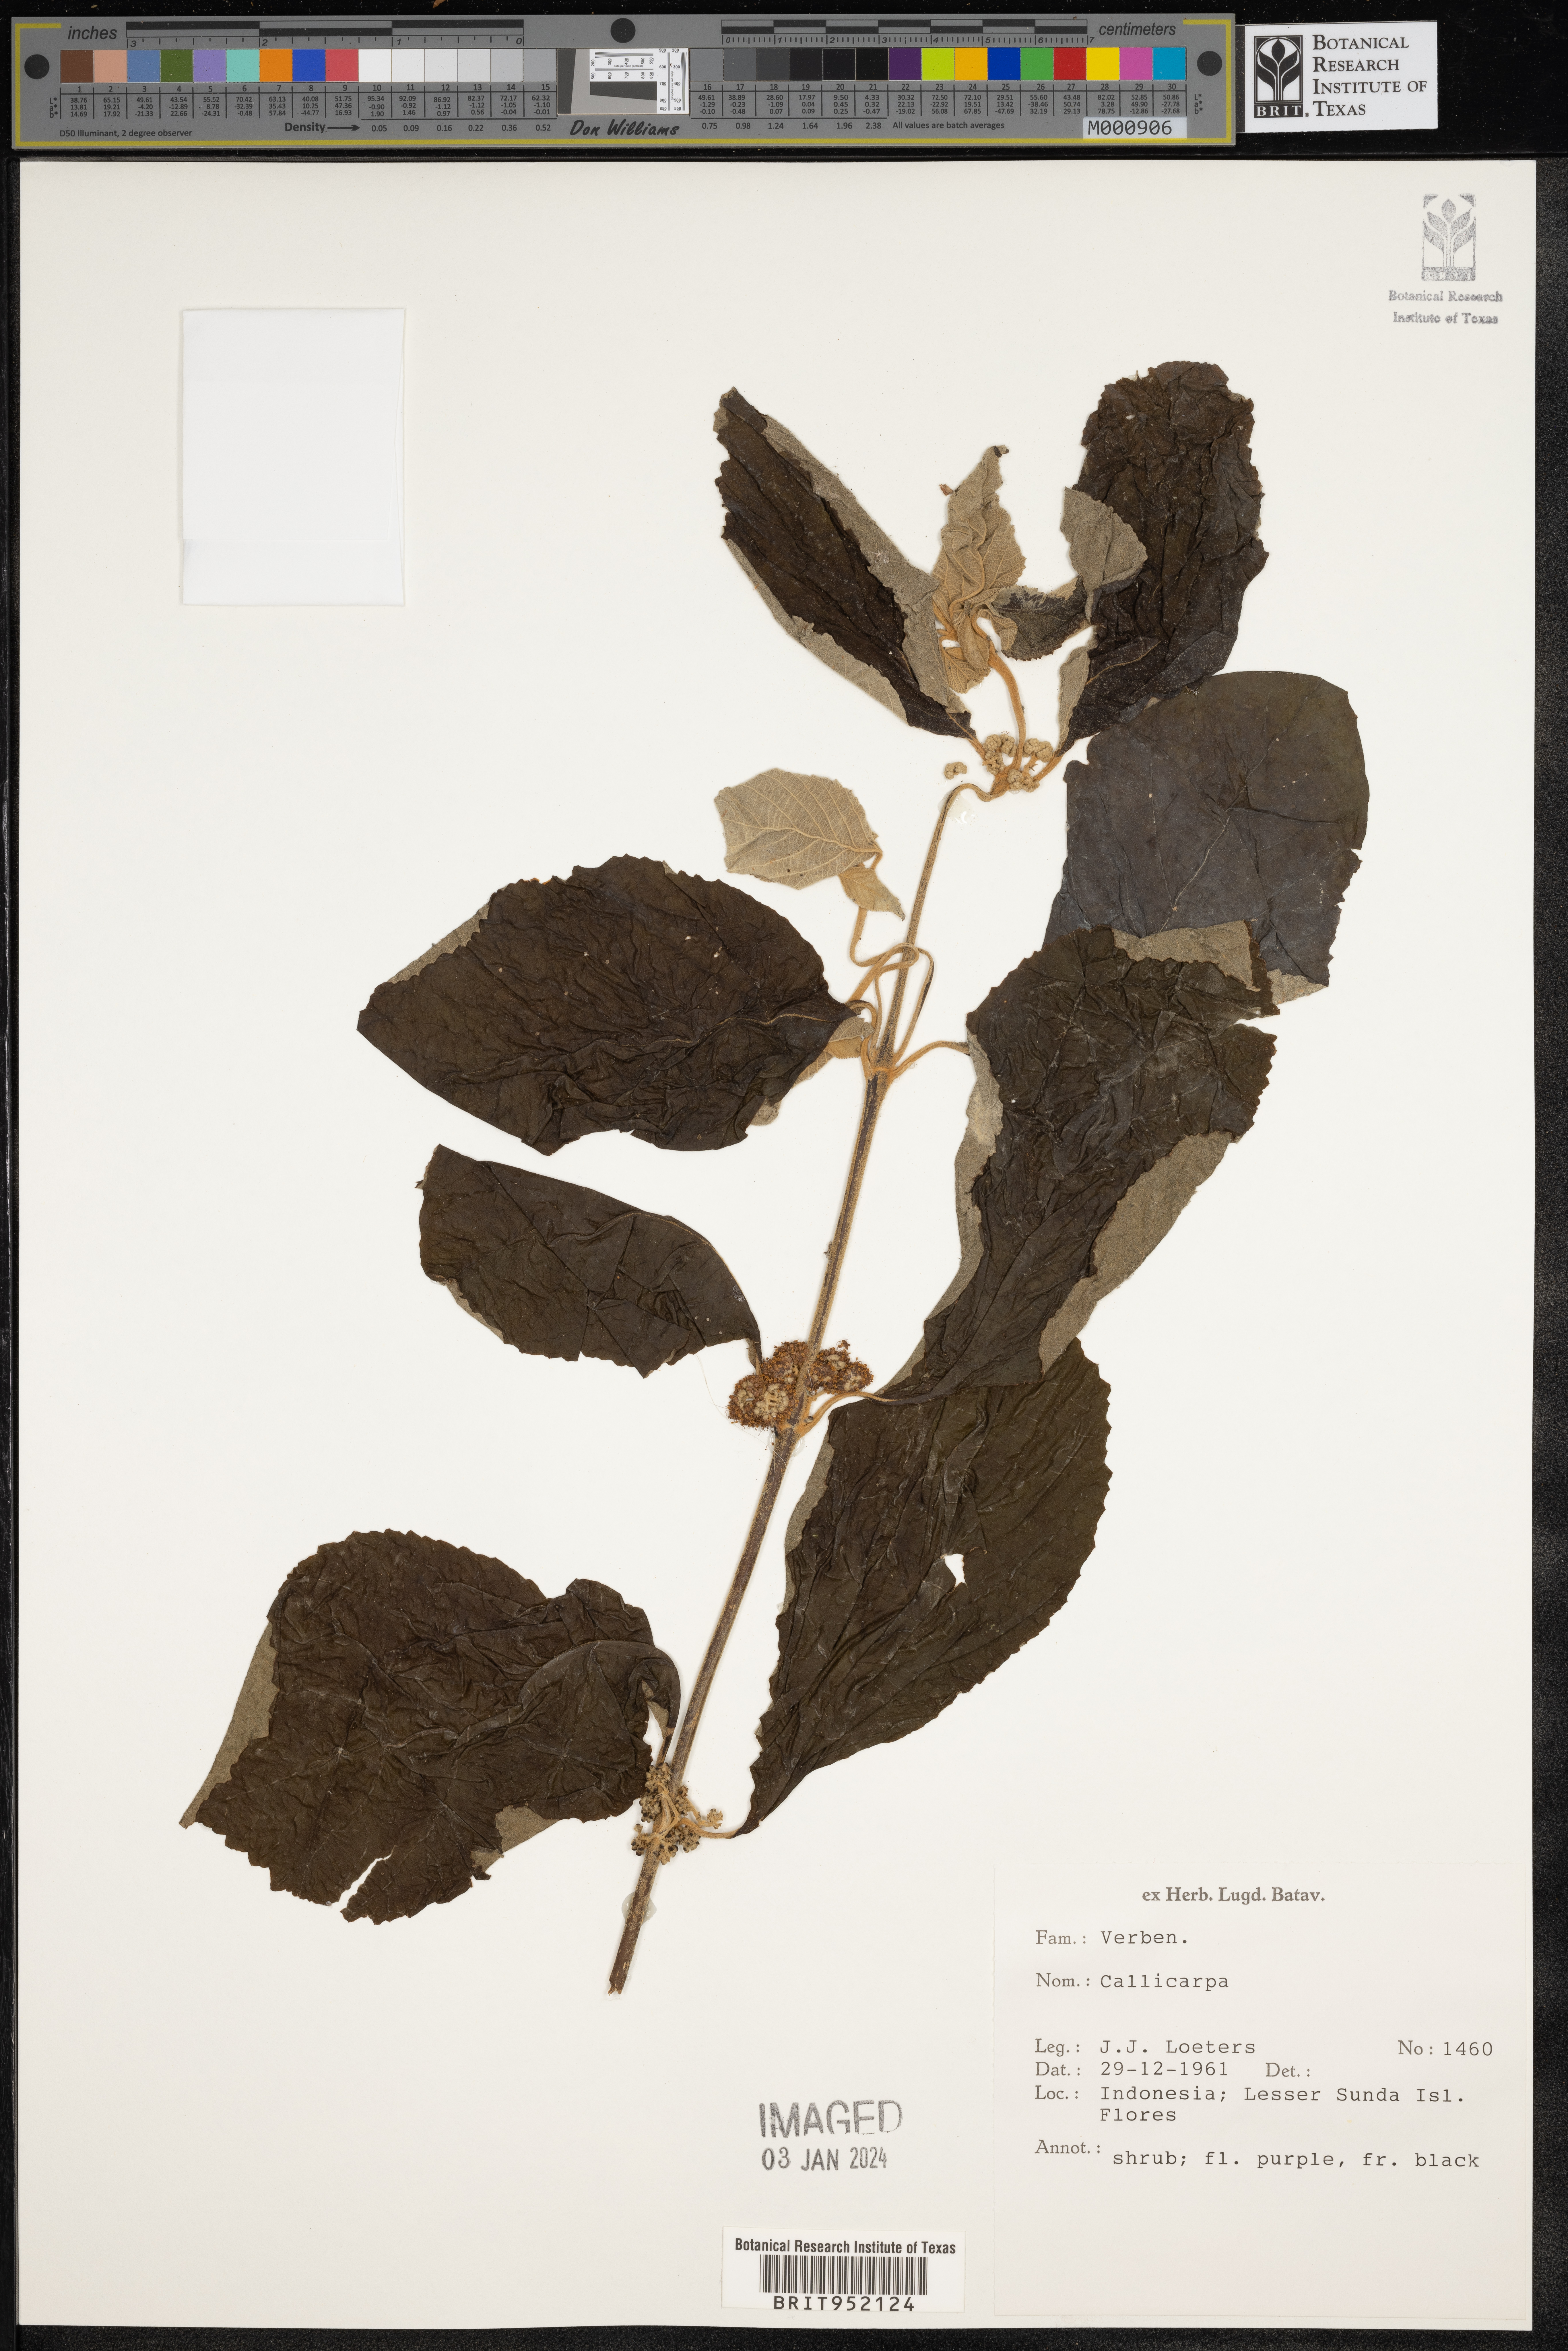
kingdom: Plantae
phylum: Tracheophyta
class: Magnoliopsida
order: Lamiales
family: Lamiaceae
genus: Callicarpa
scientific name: Callicarpa
